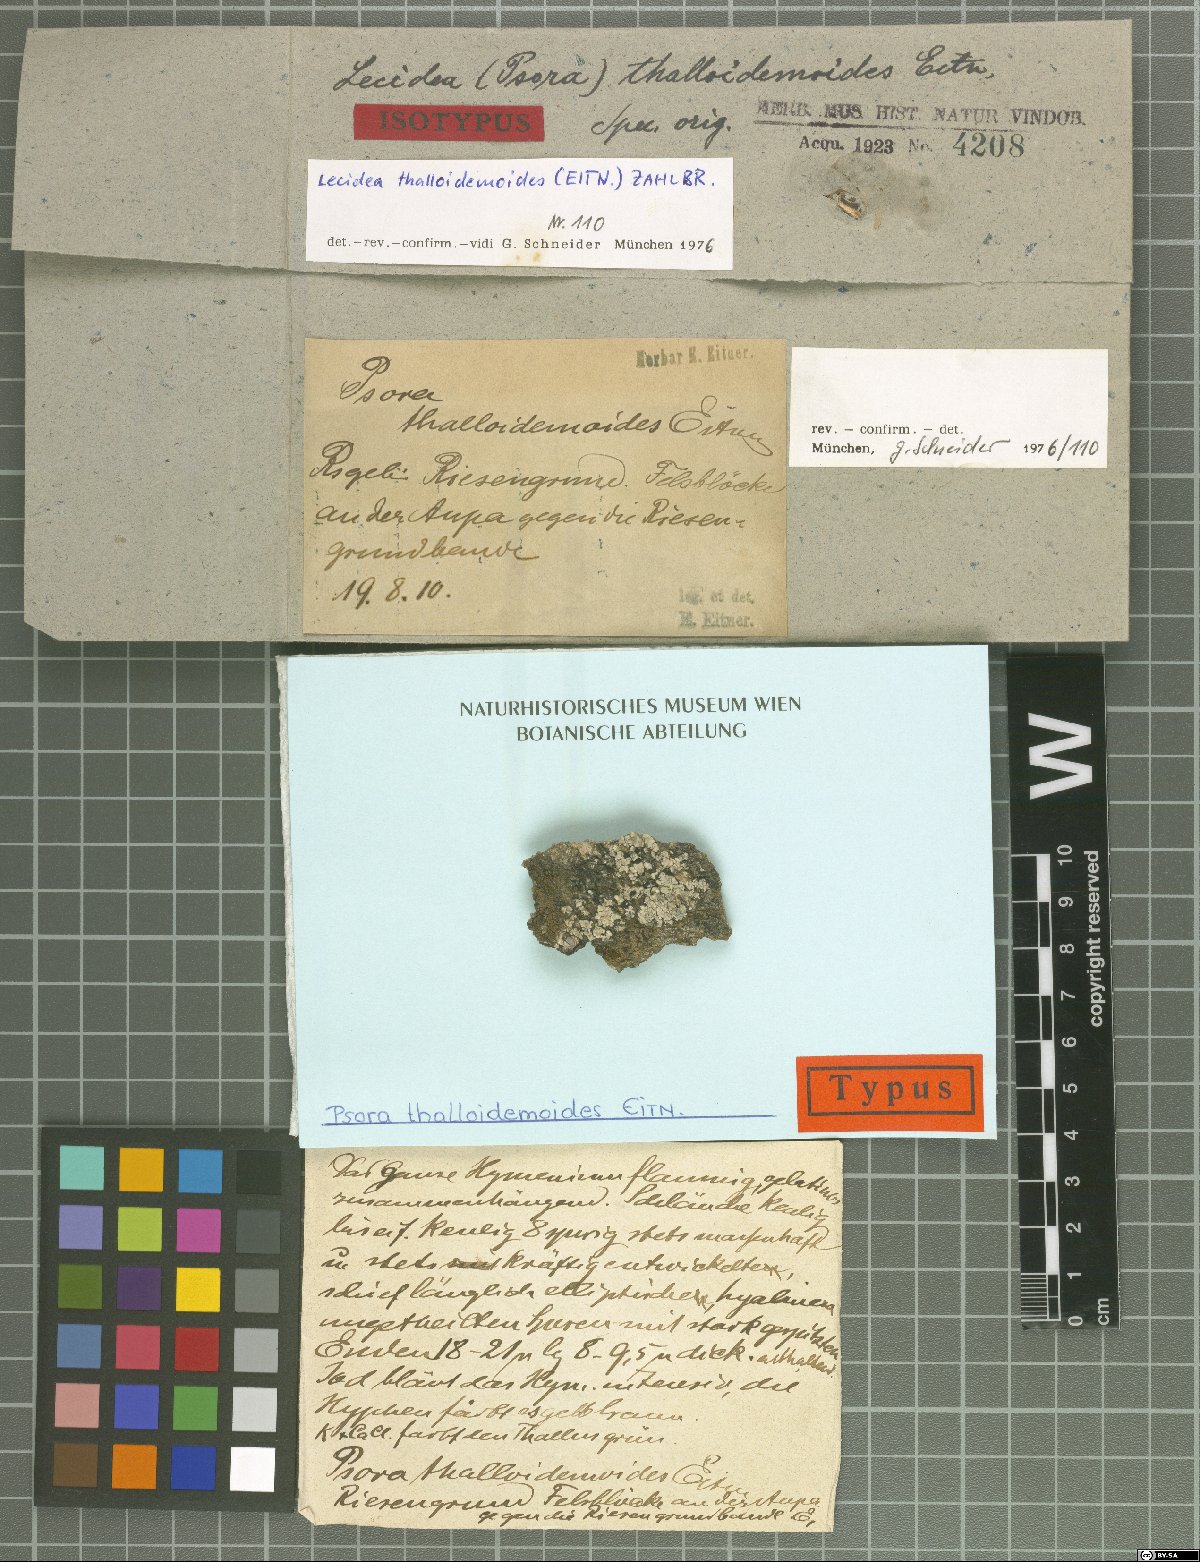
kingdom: Fungi
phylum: Ascomycota
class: Lecanoromycetes
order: Lecanorales
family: Psoraceae
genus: Psora
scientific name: Psora thalloidemoides
